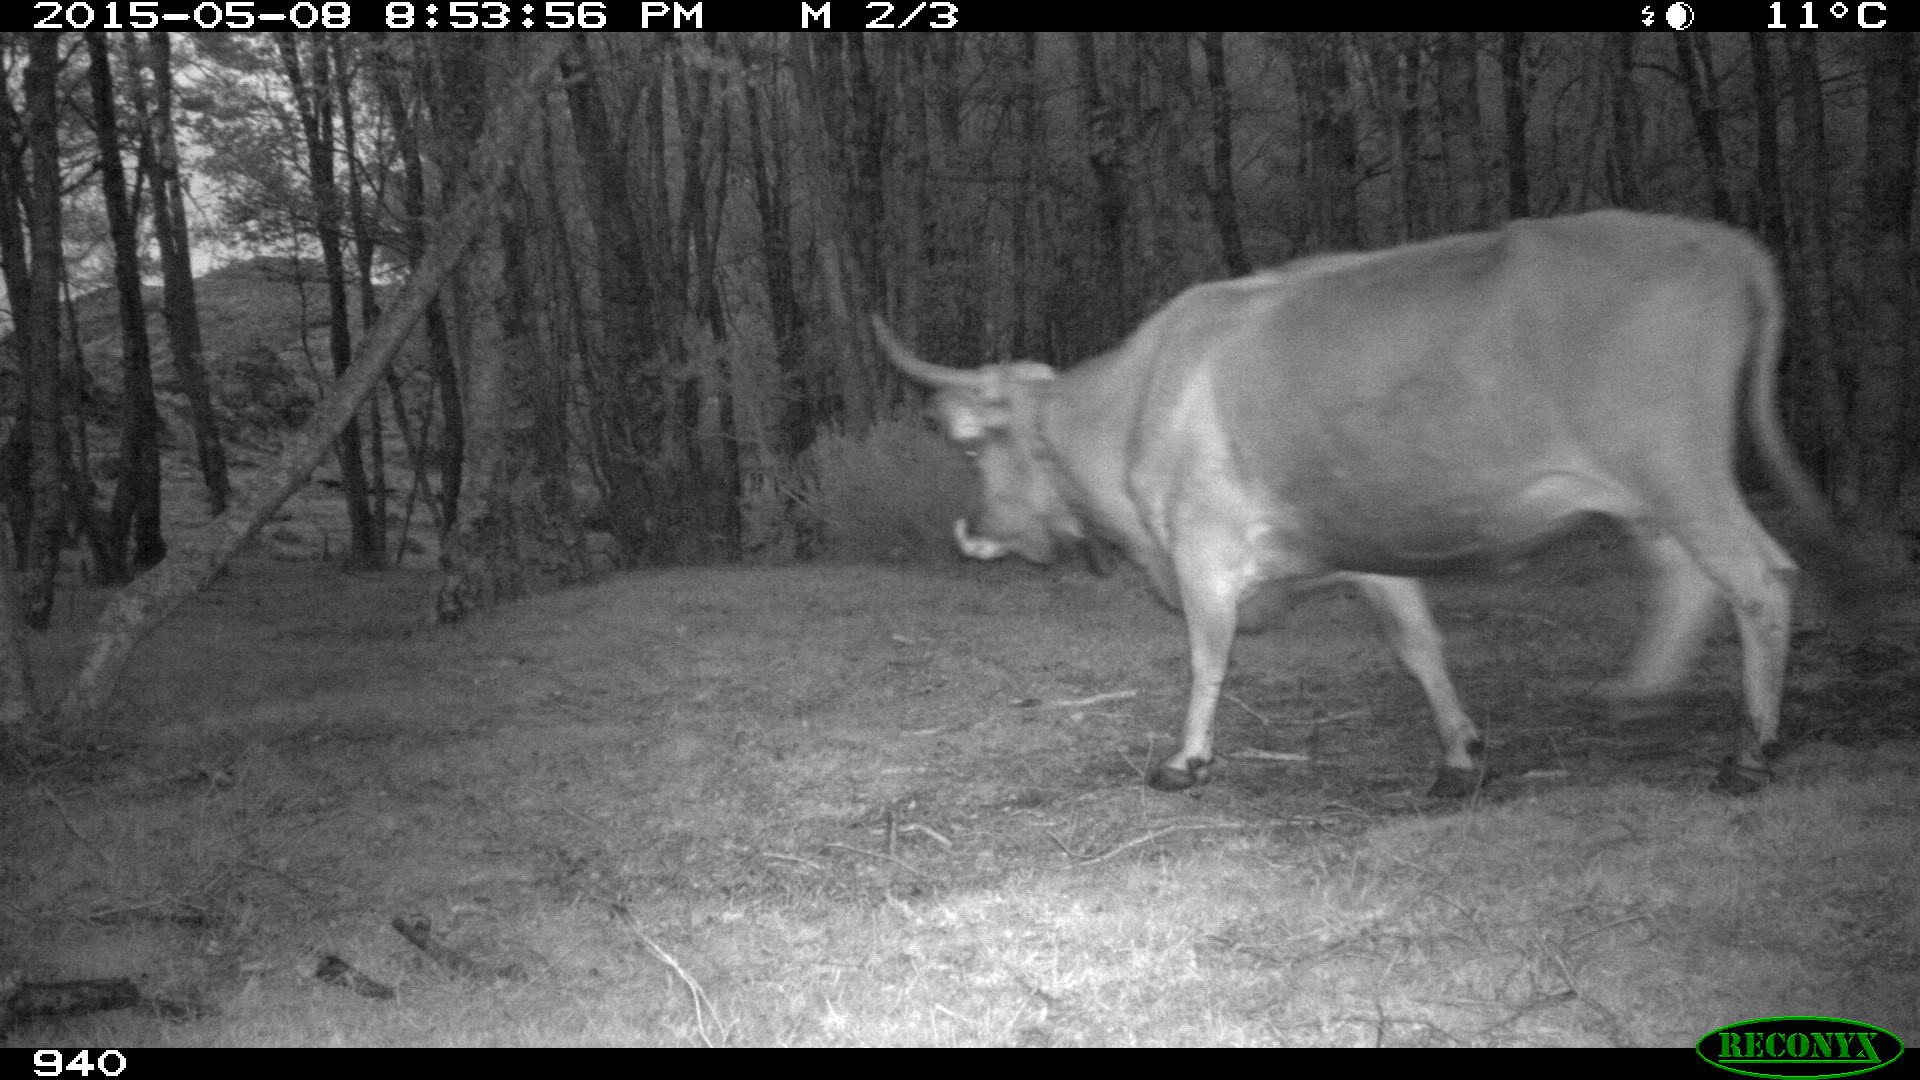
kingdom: Animalia
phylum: Chordata
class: Mammalia
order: Artiodactyla
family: Bovidae
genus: Bos
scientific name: Bos taurus
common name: Domesticated cattle
